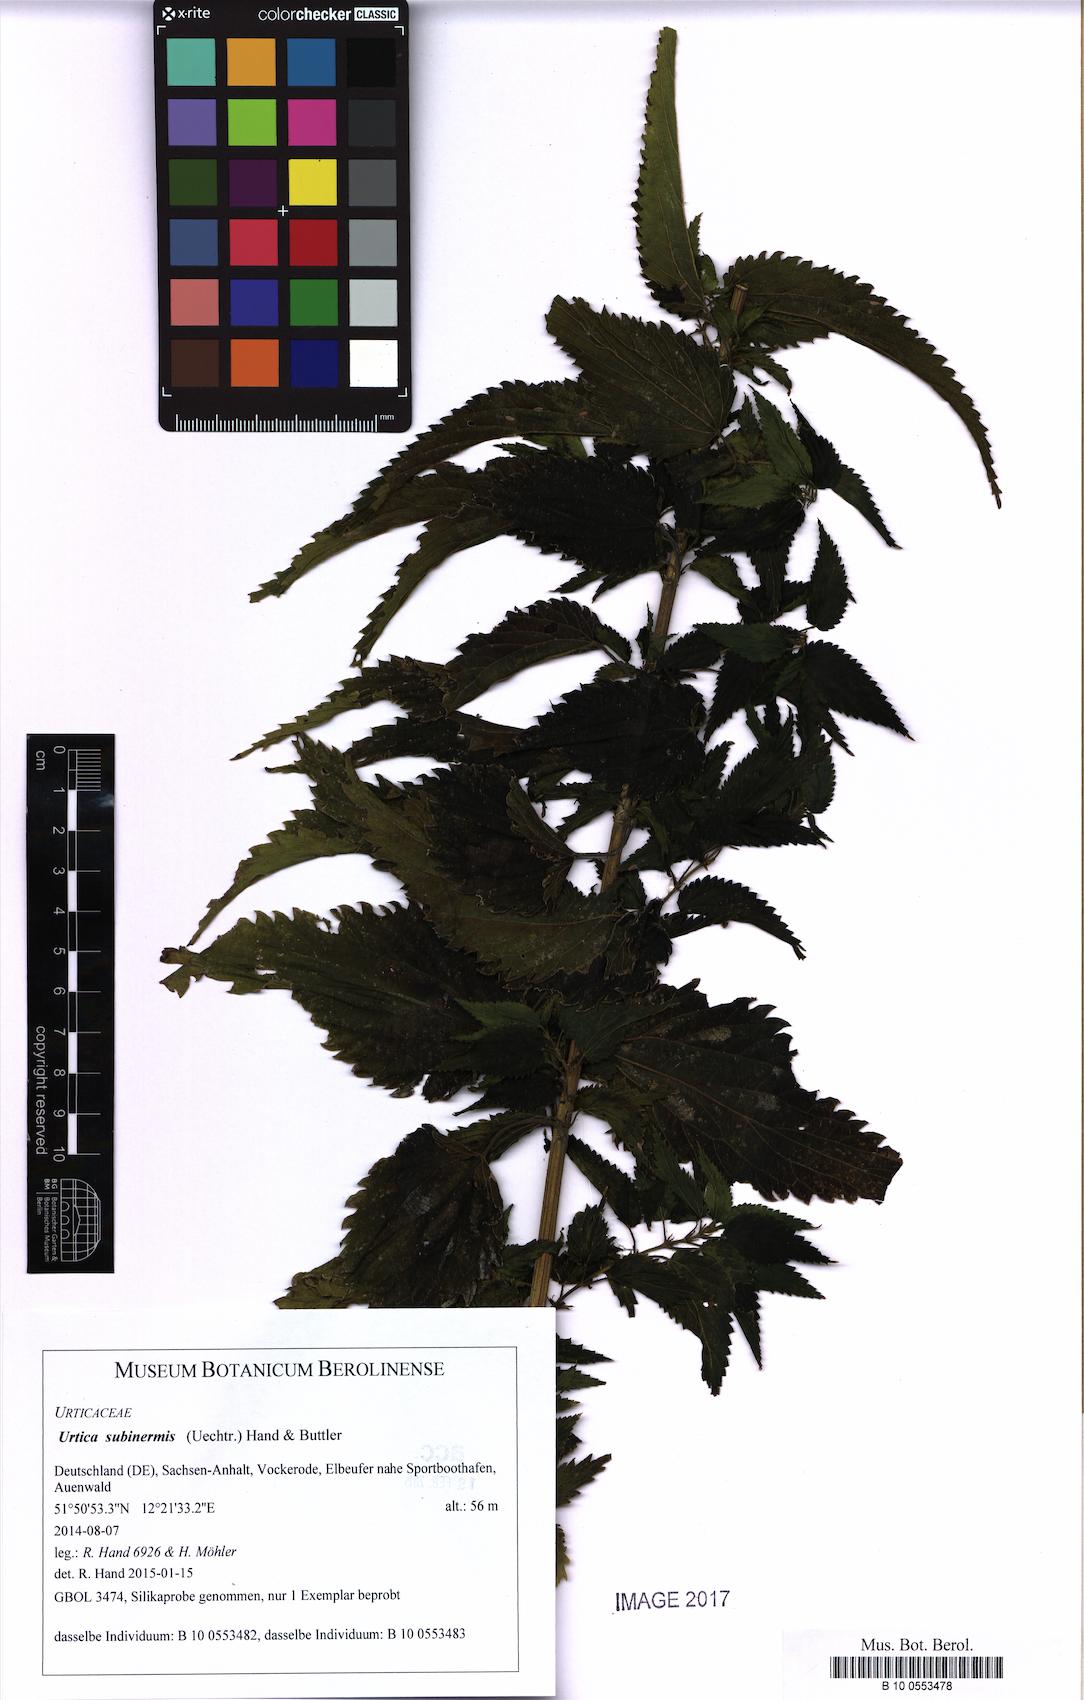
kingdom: Plantae
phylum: Tracheophyta
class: Magnoliopsida
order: Rosales
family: Urticaceae
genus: Urtica
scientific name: Urtica subinermis
